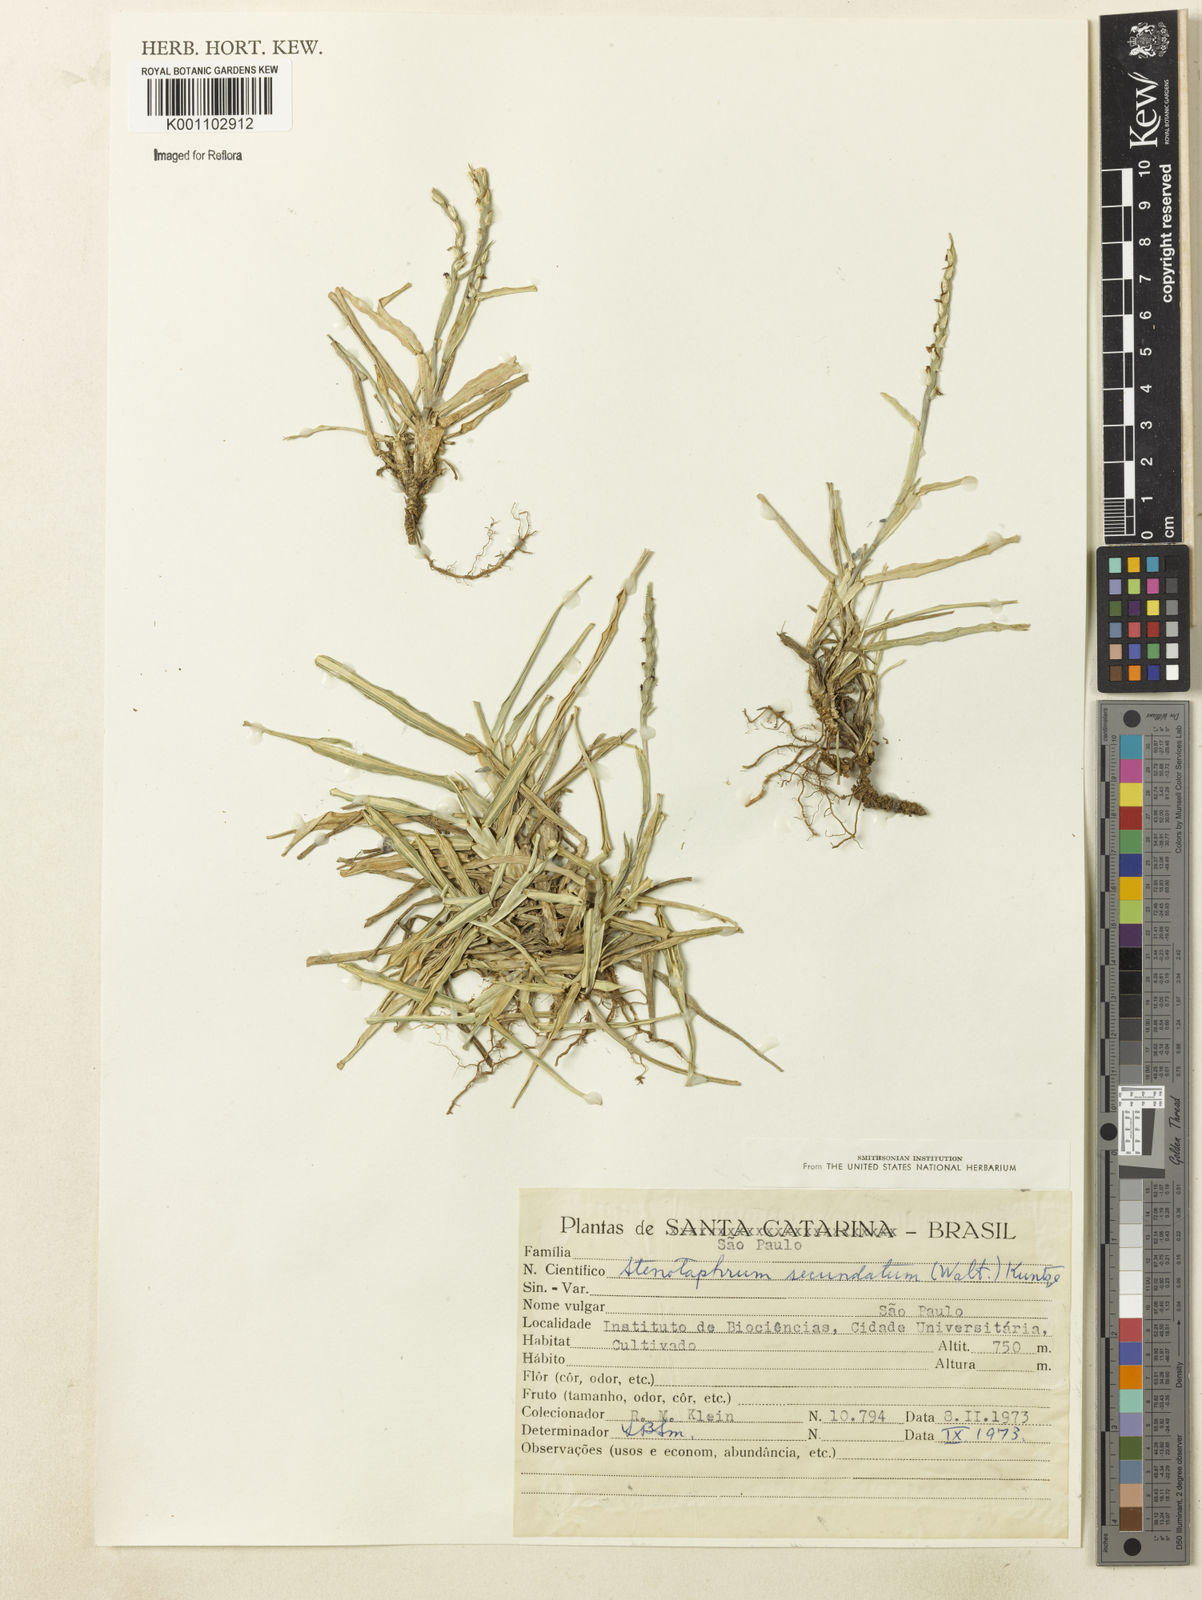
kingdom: Plantae
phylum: Tracheophyta
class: Liliopsida
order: Poales
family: Poaceae
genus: Stenotaphrum
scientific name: Stenotaphrum secundatum
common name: St. augustine grass
